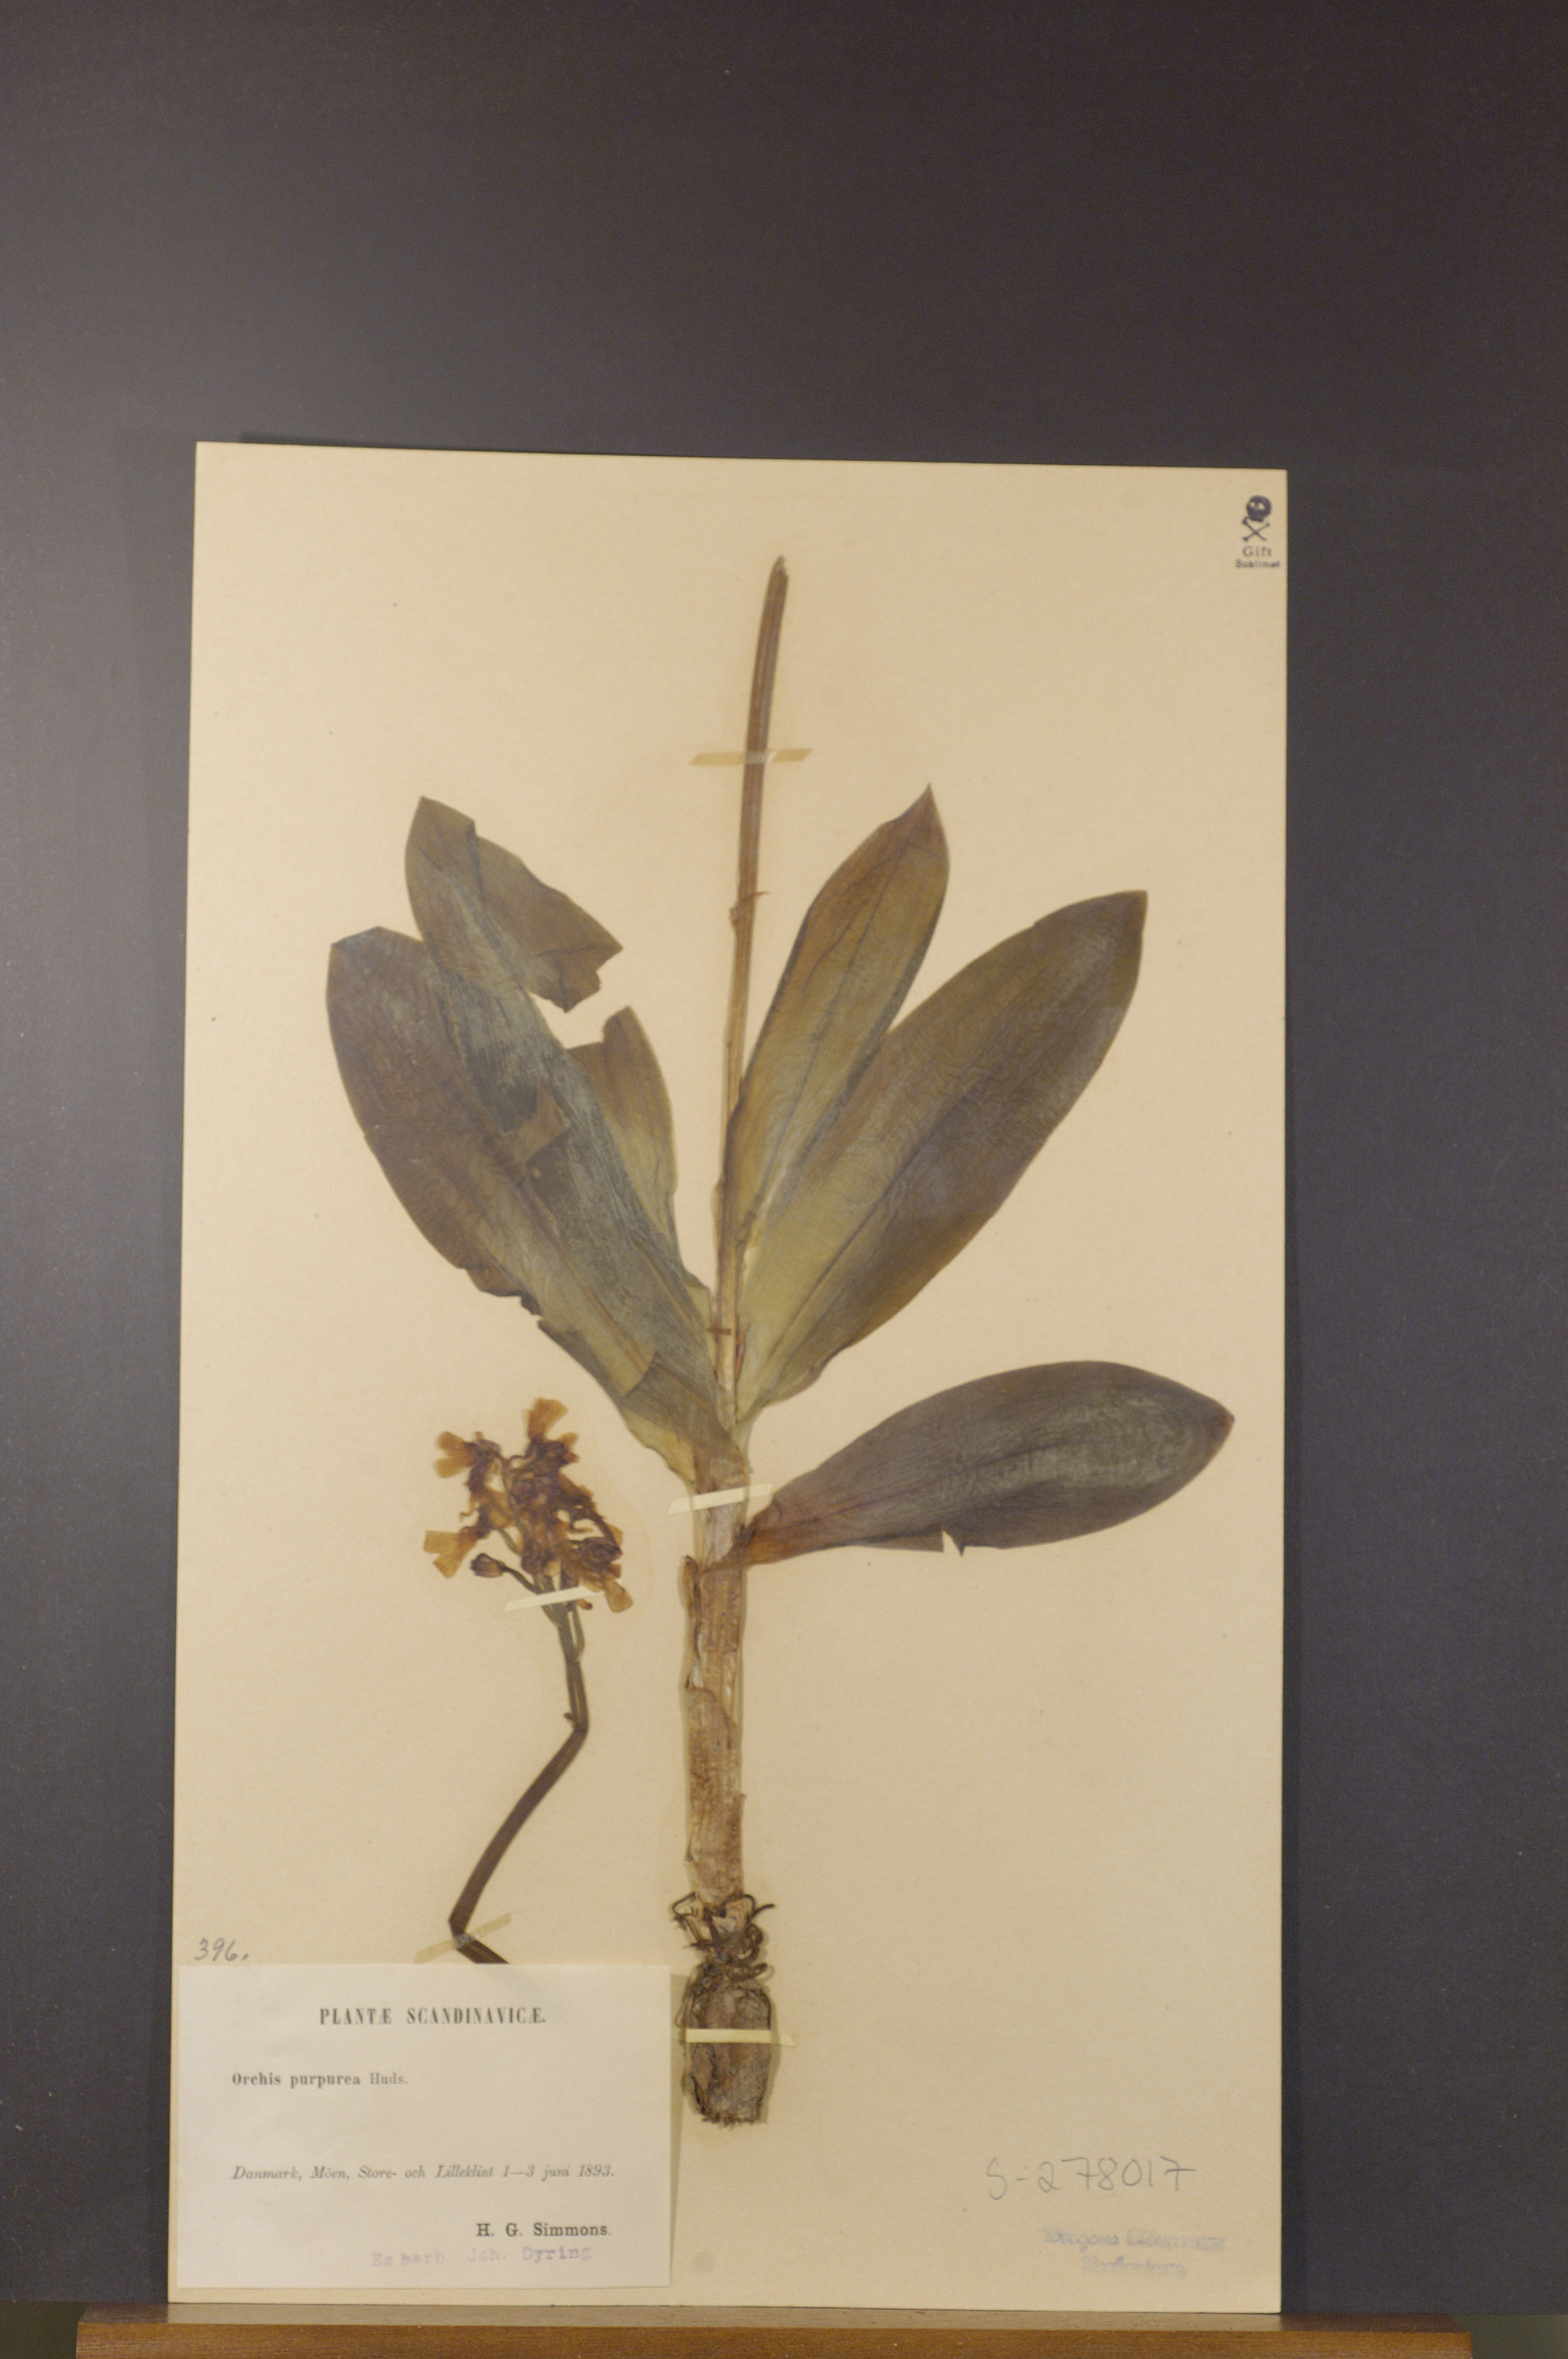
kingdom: Plantae
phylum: Tracheophyta
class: Liliopsida
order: Asparagales
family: Orchidaceae
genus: Orchis
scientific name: Orchis purpurea
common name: Lady orchid
